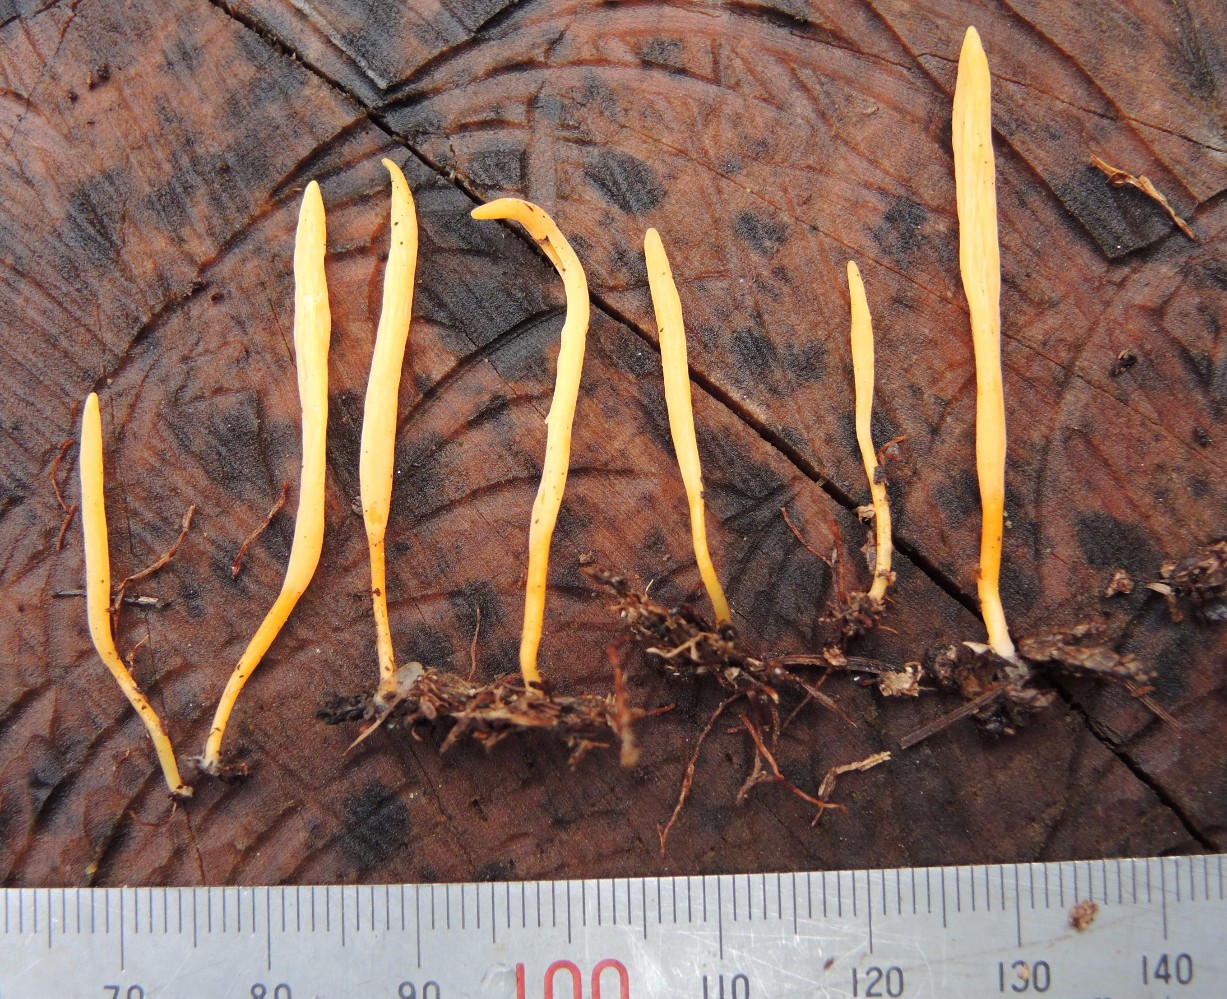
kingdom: Fungi
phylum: Basidiomycota
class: Agaricomycetes
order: Agaricales
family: Clavariaceae
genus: Clavulinopsis
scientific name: Clavulinopsis luteoalba
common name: abrikos-køllesvamp
